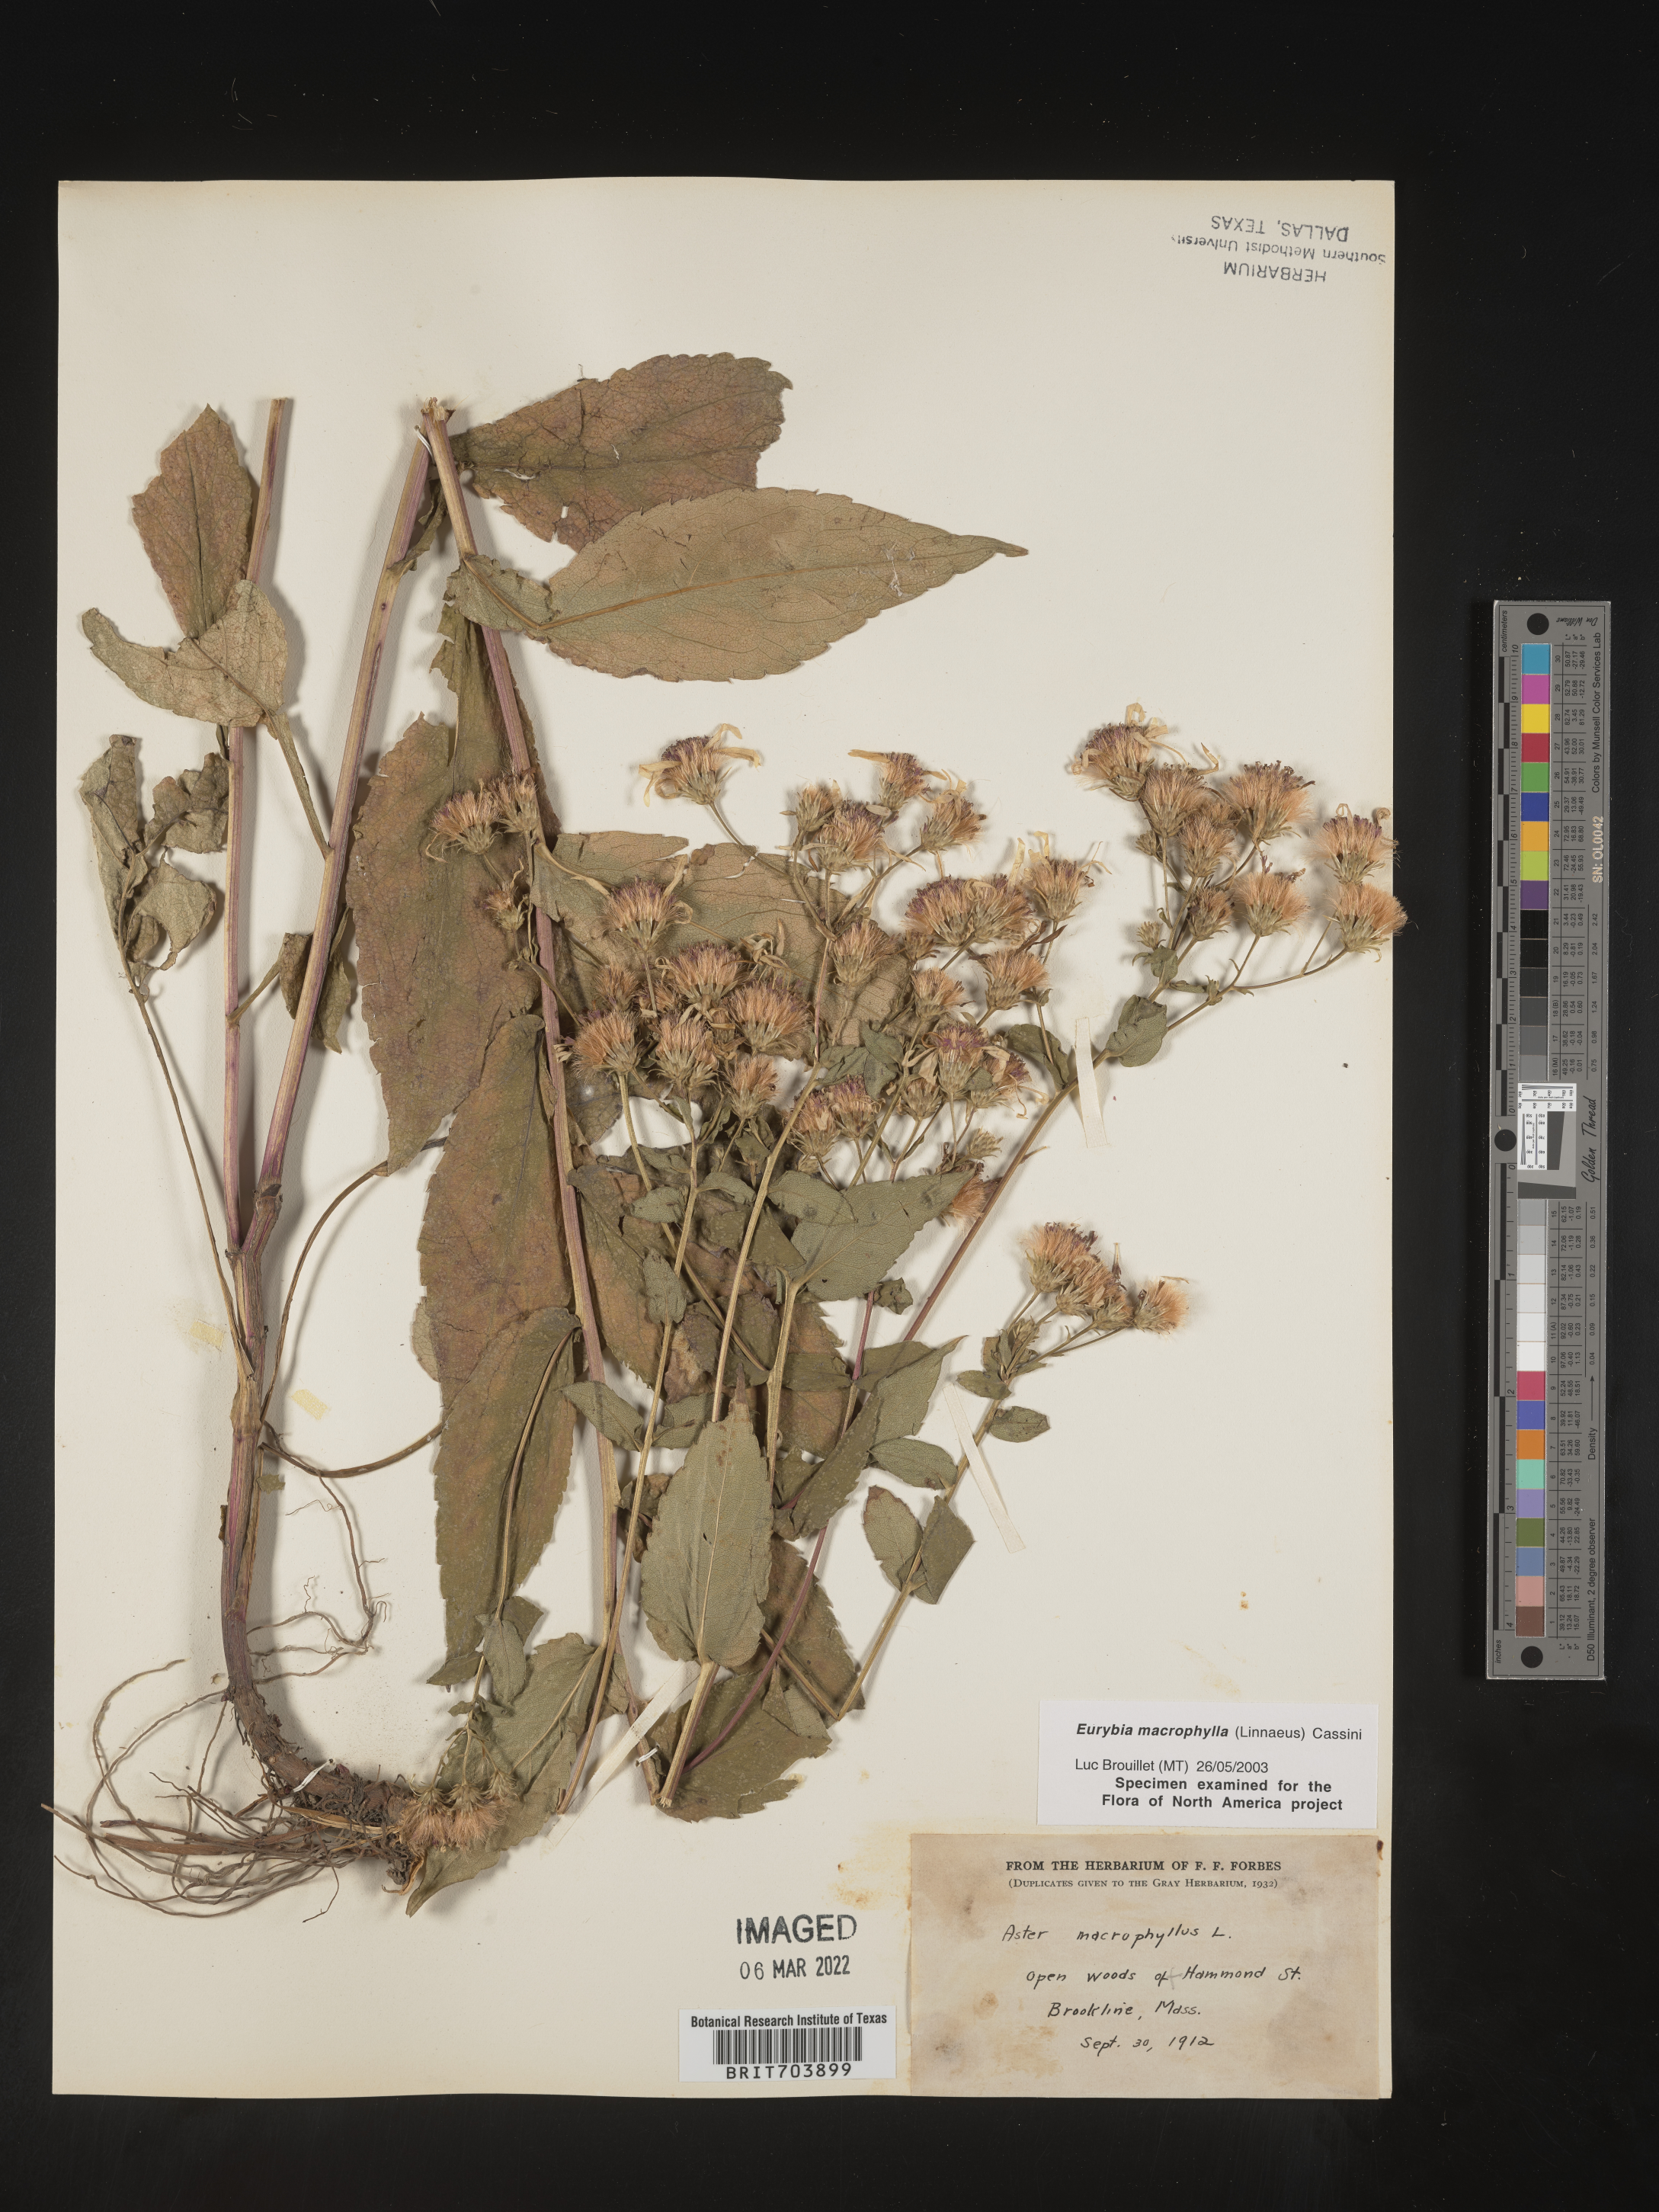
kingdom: Plantae
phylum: Tracheophyta
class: Magnoliopsida
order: Asterales
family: Asteraceae
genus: Eurybia
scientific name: Eurybia macrophylla
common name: Big-leaved aster
